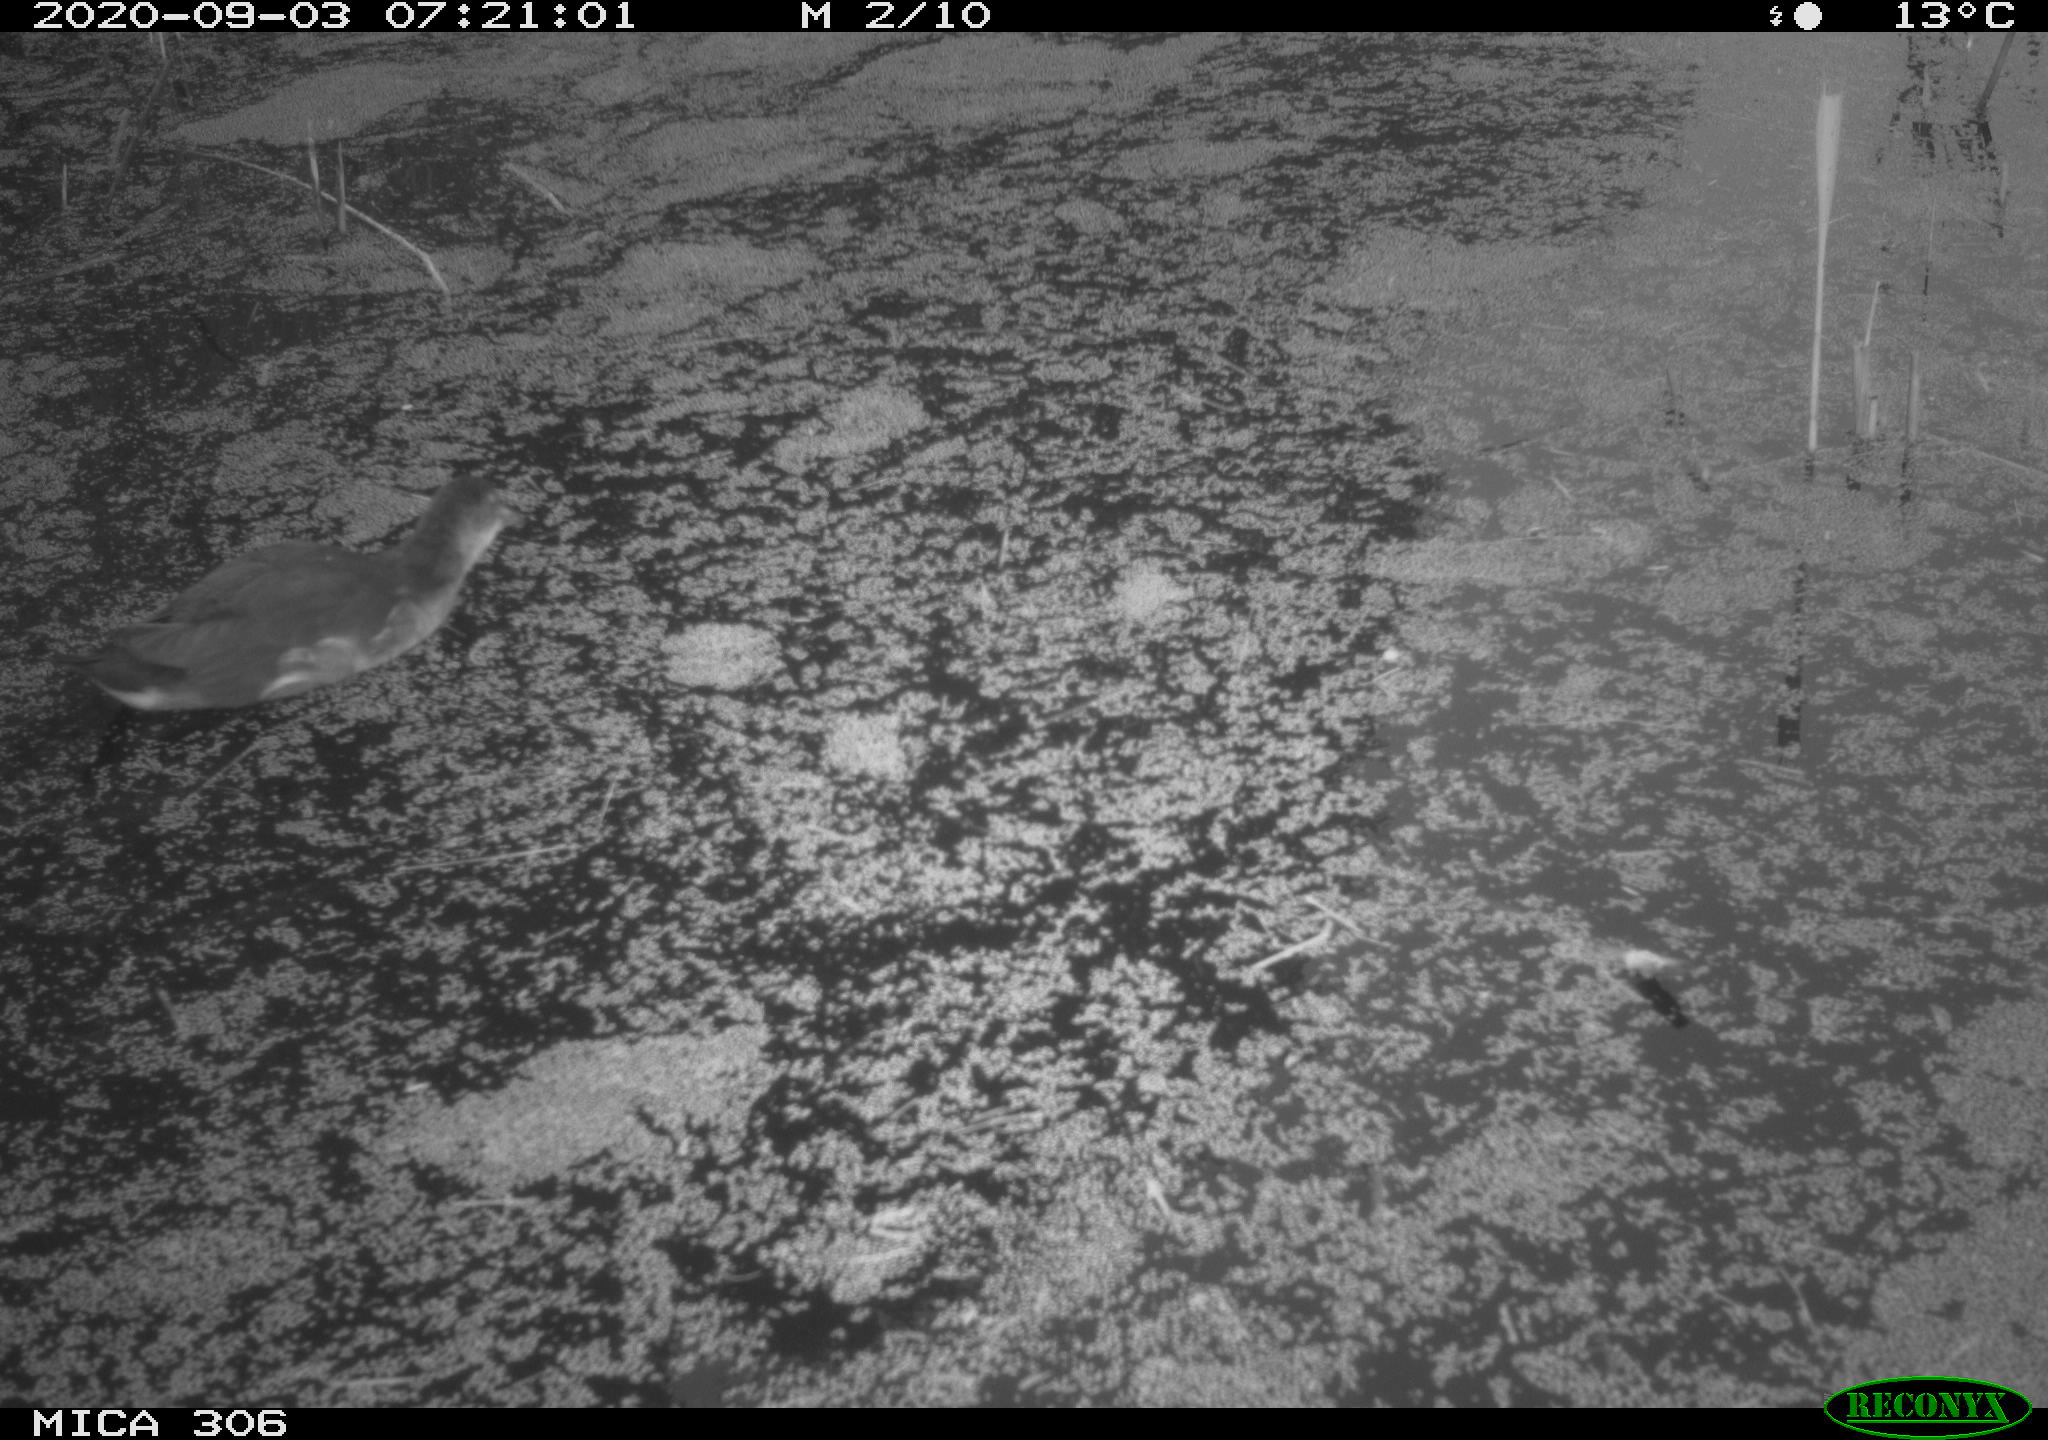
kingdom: Animalia
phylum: Chordata
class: Aves
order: Gruiformes
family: Rallidae
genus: Gallinula
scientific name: Gallinula chloropus
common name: Common moorhen
